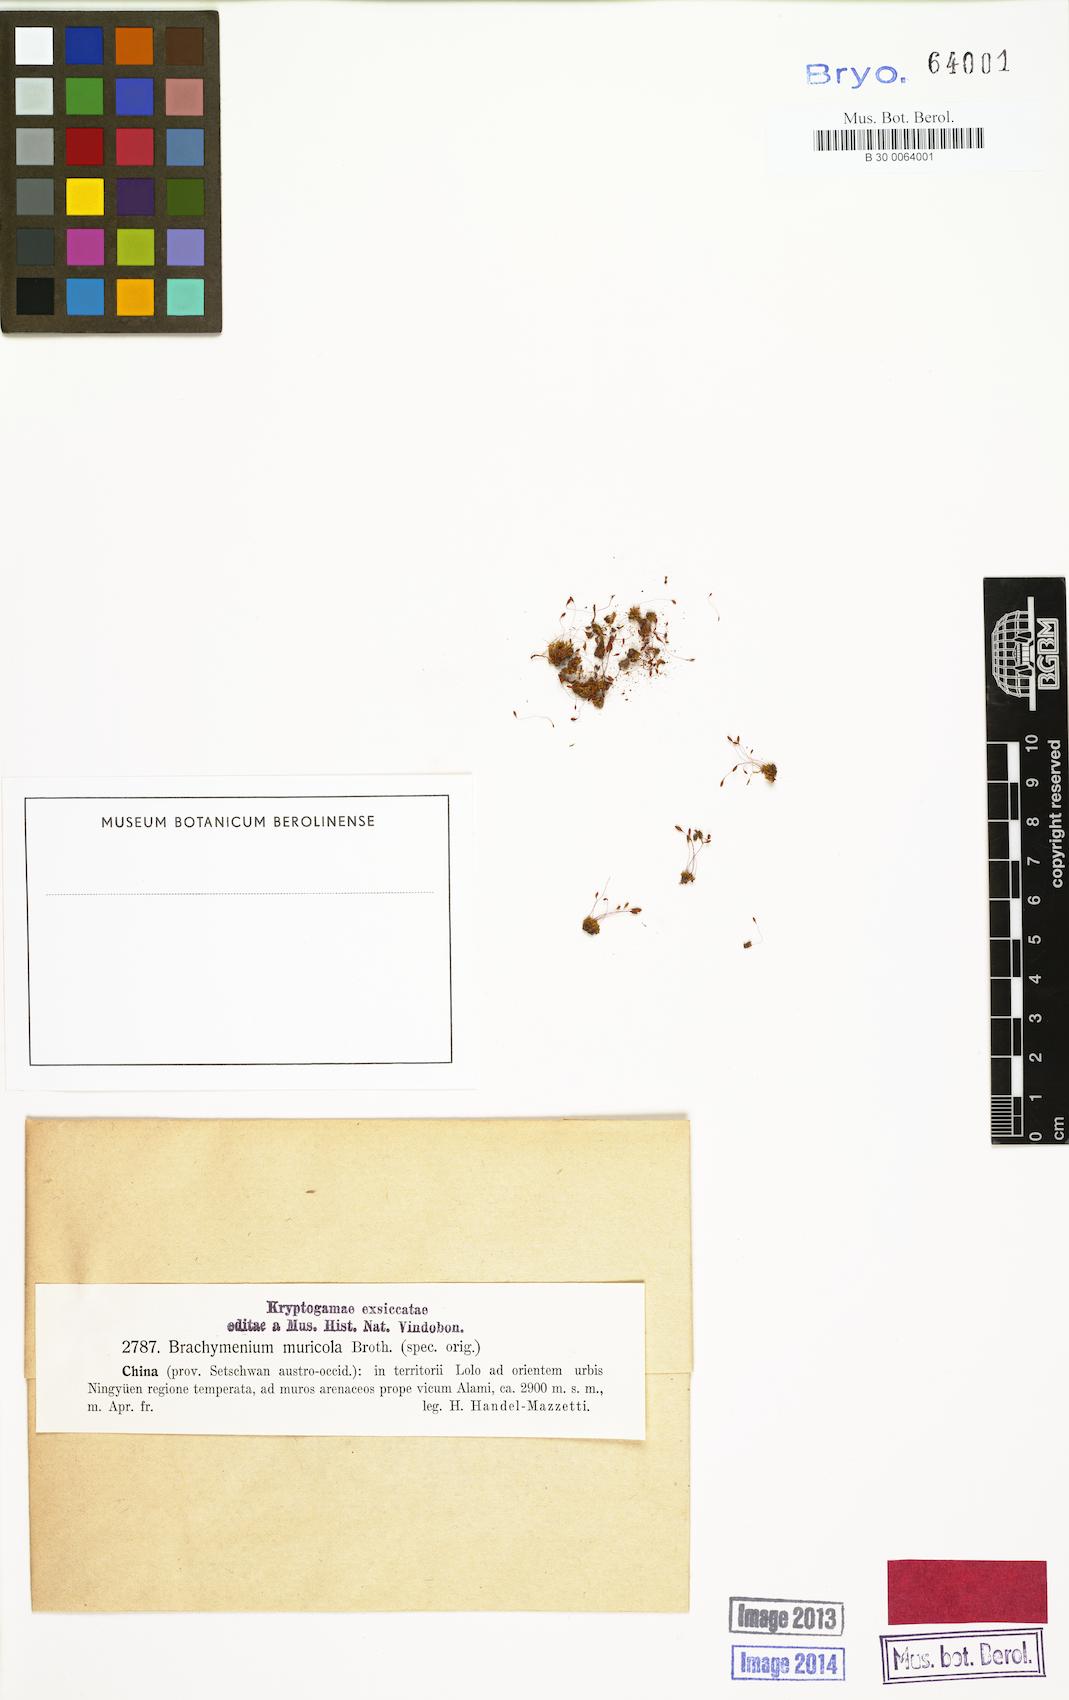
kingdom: Plantae
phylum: Bryophyta
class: Bryopsida
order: Bryales
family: Bryaceae
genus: Brachymenium
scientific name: Brachymenium muricola
